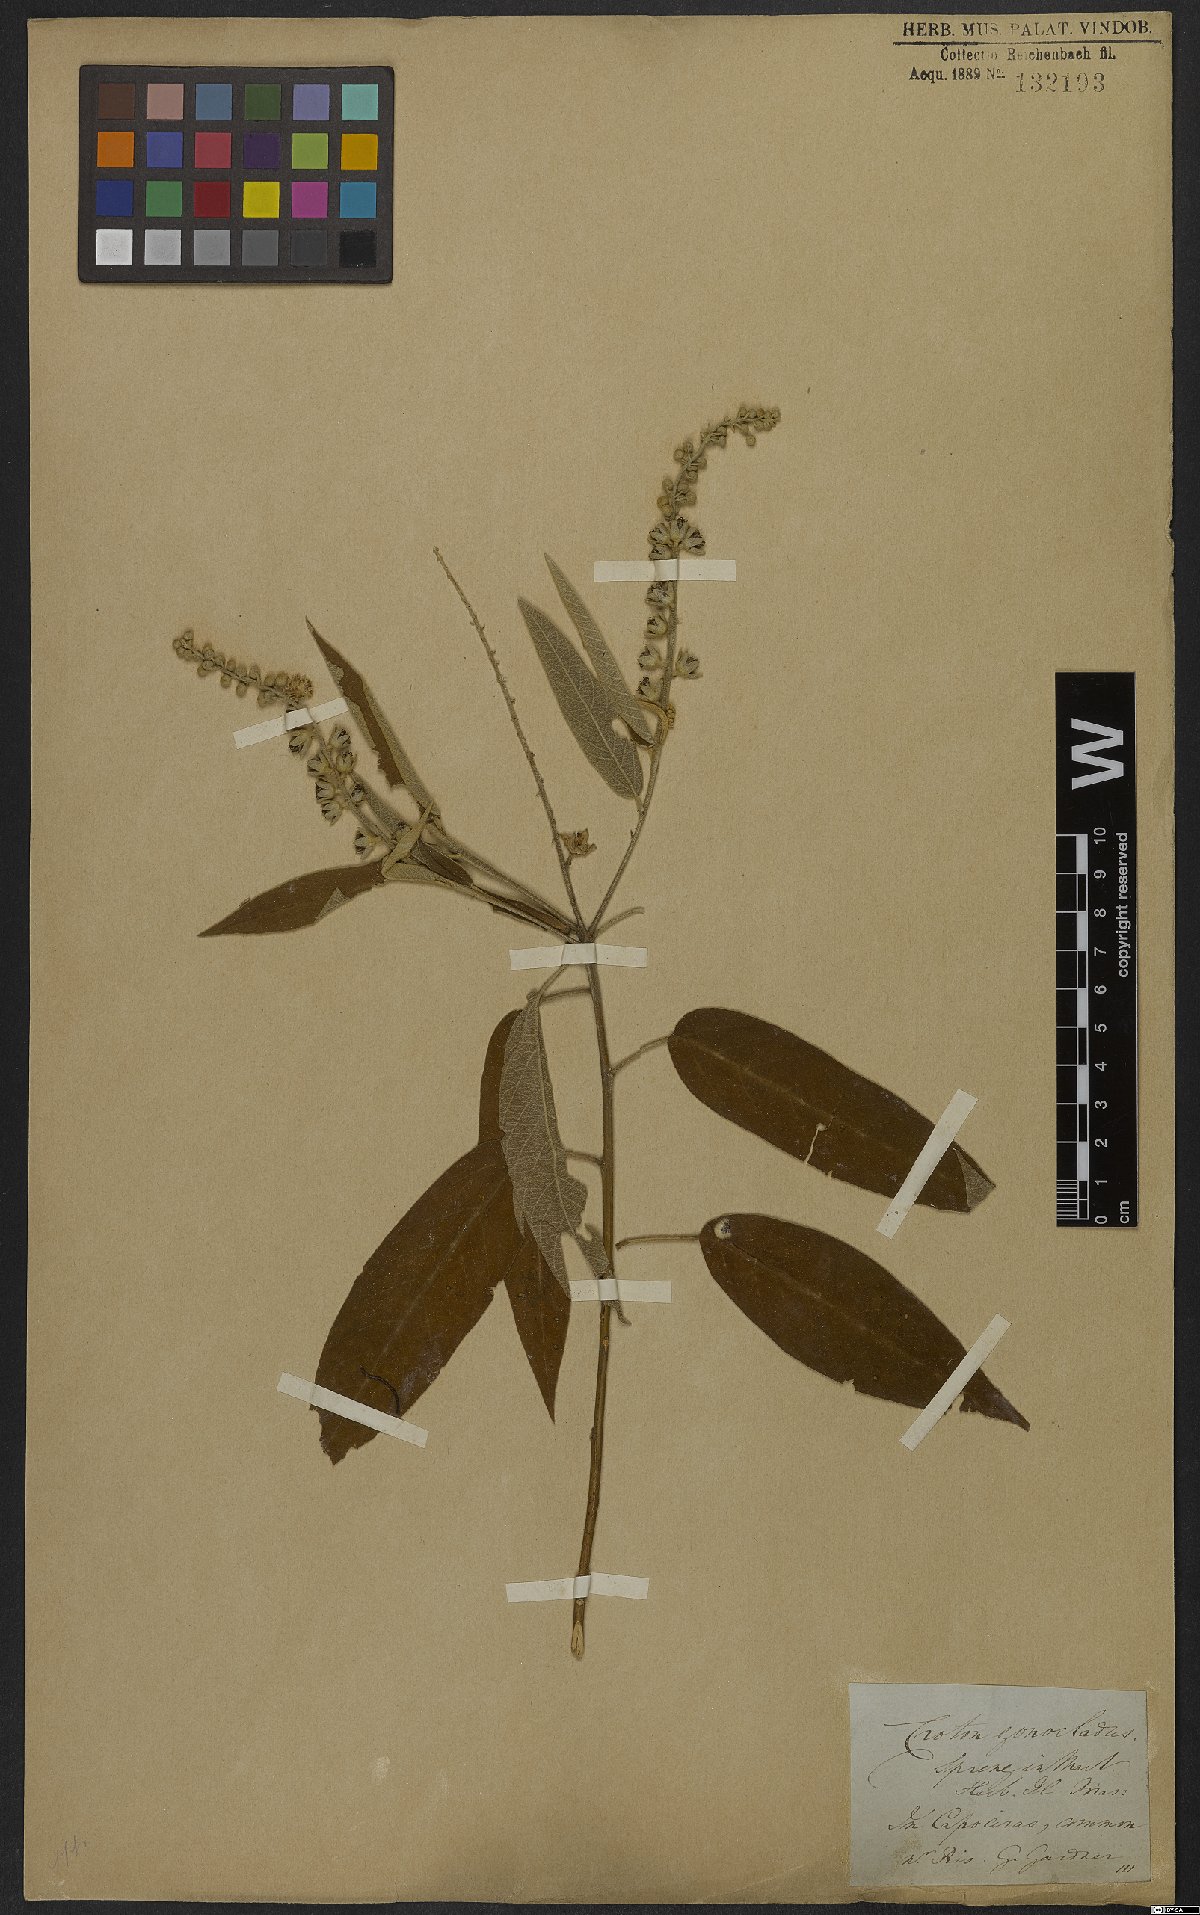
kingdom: Plantae
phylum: Tracheophyta
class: Magnoliopsida
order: Malpighiales
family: Euphorbiaceae
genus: Croton
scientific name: Croton compressus
